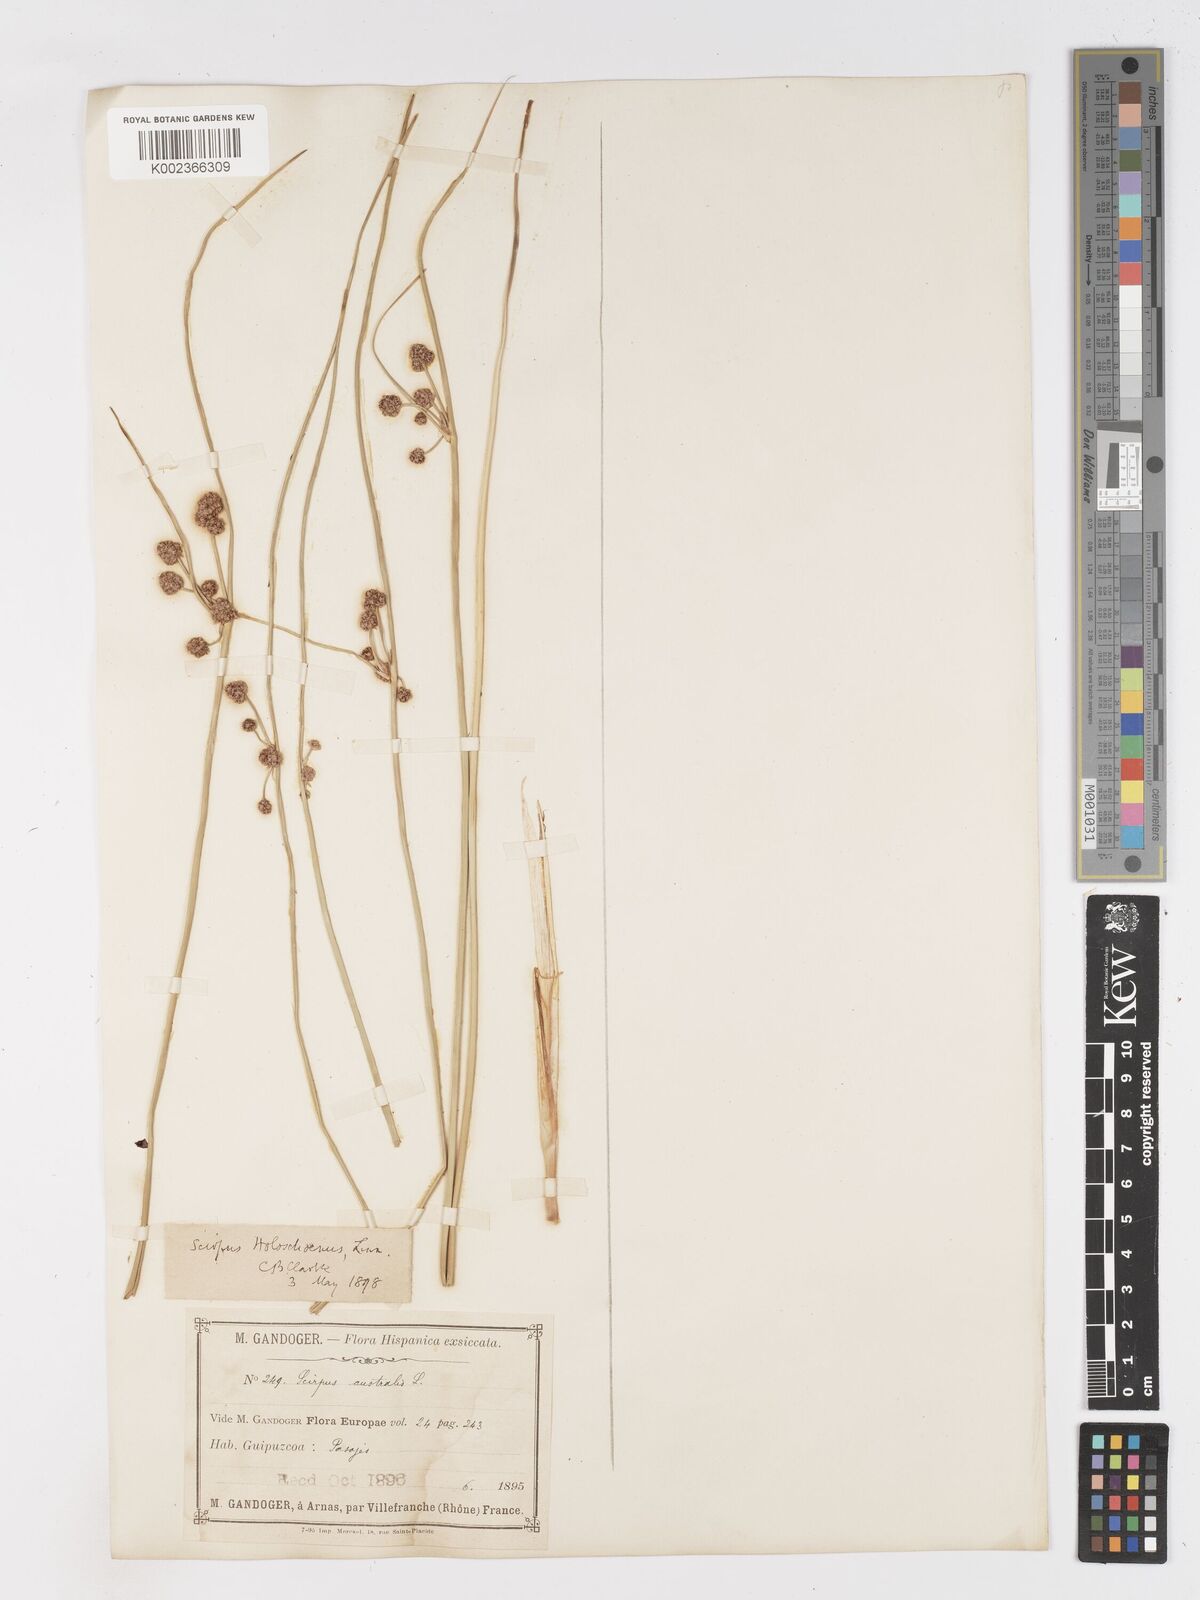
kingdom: Plantae
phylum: Tracheophyta
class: Liliopsida
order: Poales
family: Cyperaceae
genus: Scirpoides
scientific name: Scirpoides holoschoenus
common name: Round-headed club-rush
